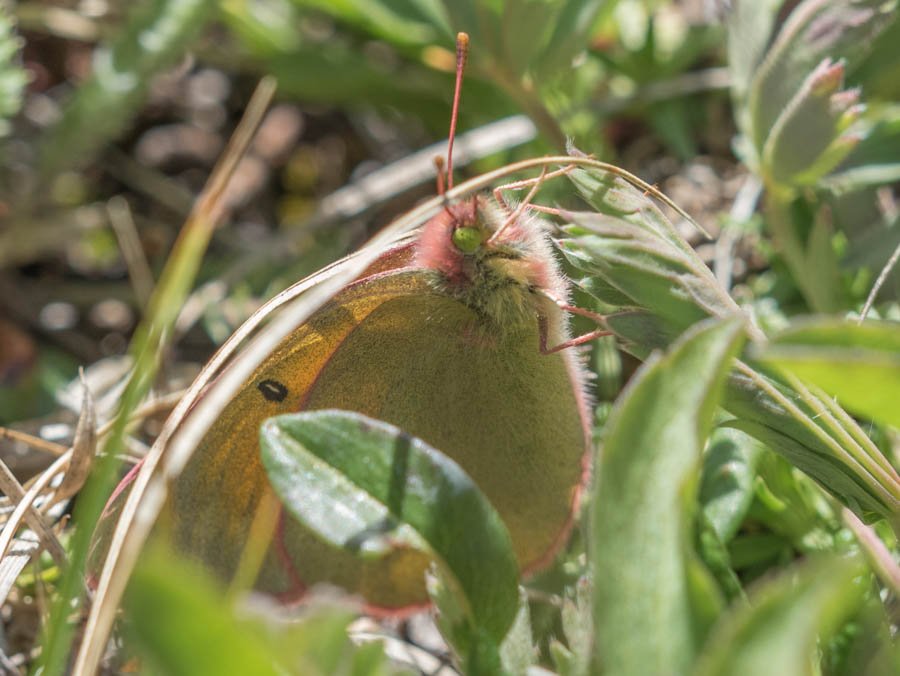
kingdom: Animalia
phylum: Arthropoda
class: Insecta
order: Lepidoptera
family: Pieridae
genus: Colias
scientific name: Colias meadii
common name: Mead's Sulphur
